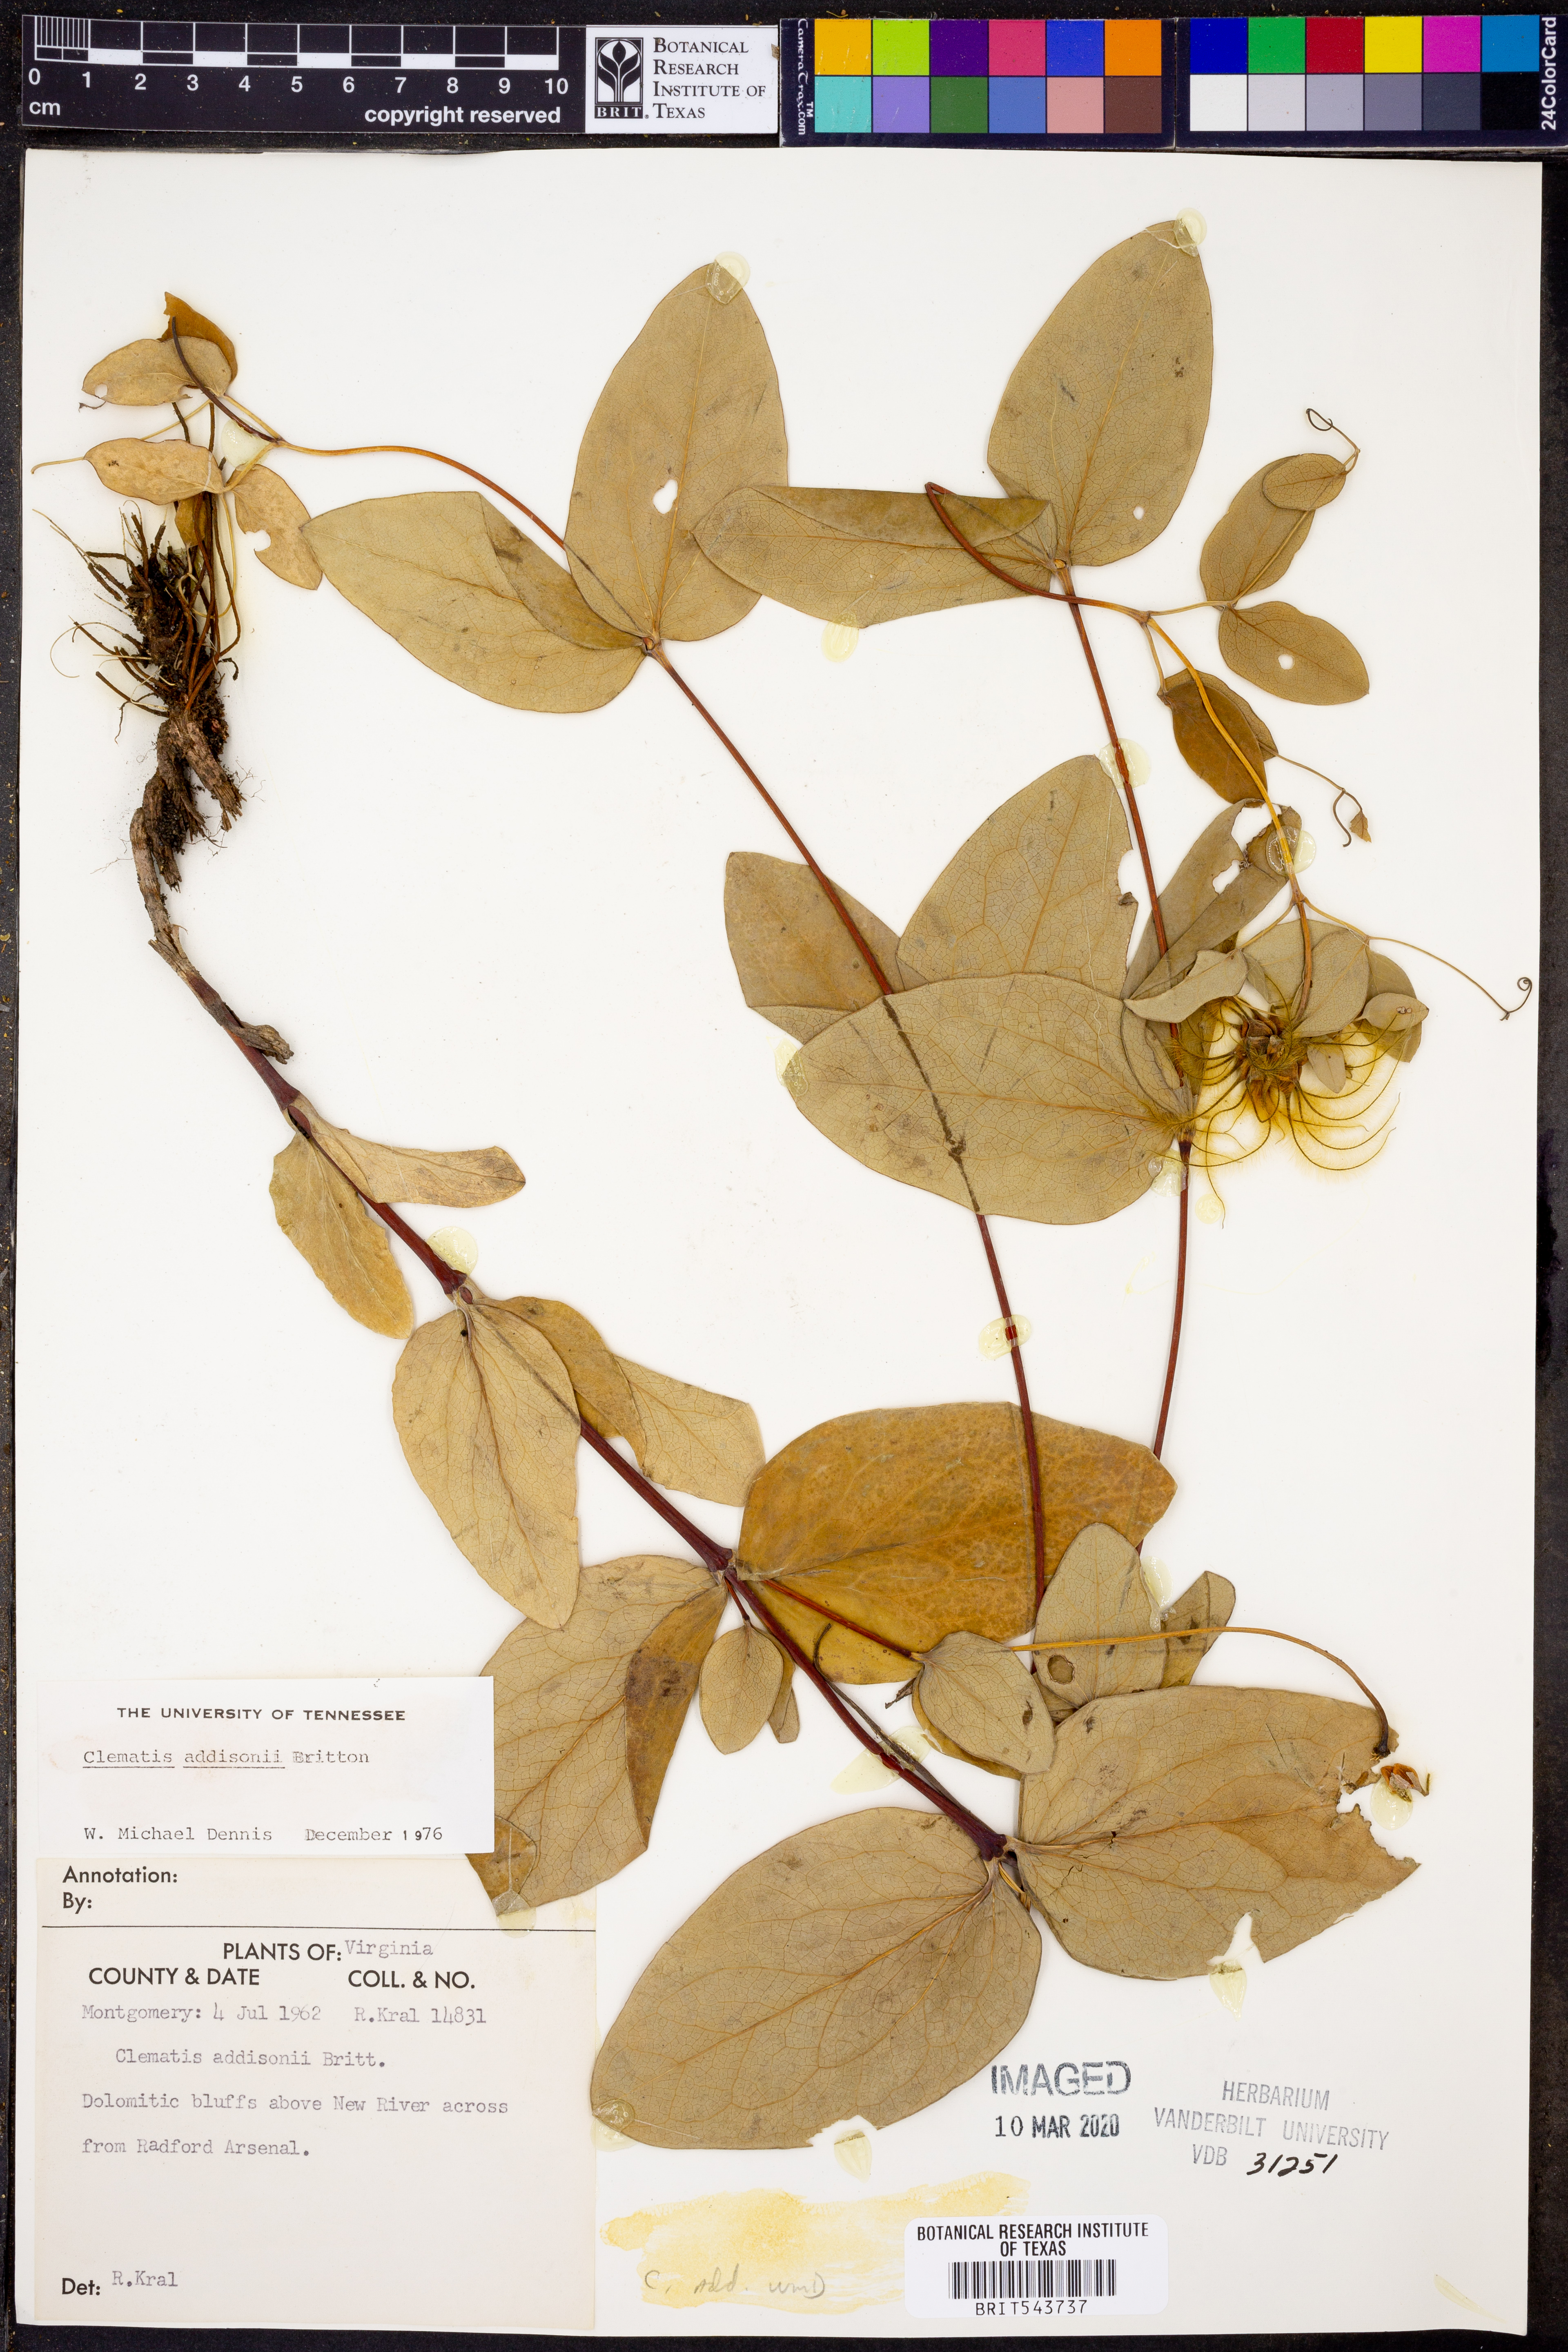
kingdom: Plantae
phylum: Tracheophyta
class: Magnoliopsida
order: Ranunculales
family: Ranunculaceae
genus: Clematis
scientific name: Clematis addisonii
